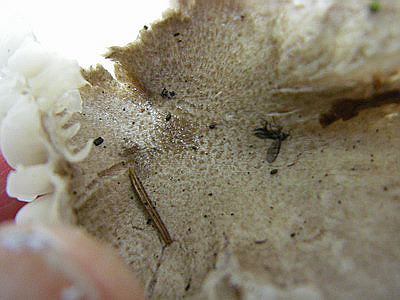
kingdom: Fungi
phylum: Basidiomycota
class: Agaricomycetes
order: Agaricales
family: Hygrophoraceae
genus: Hygrophorus
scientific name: Hygrophorus pustulatus
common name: mørkprikket sneglehat
